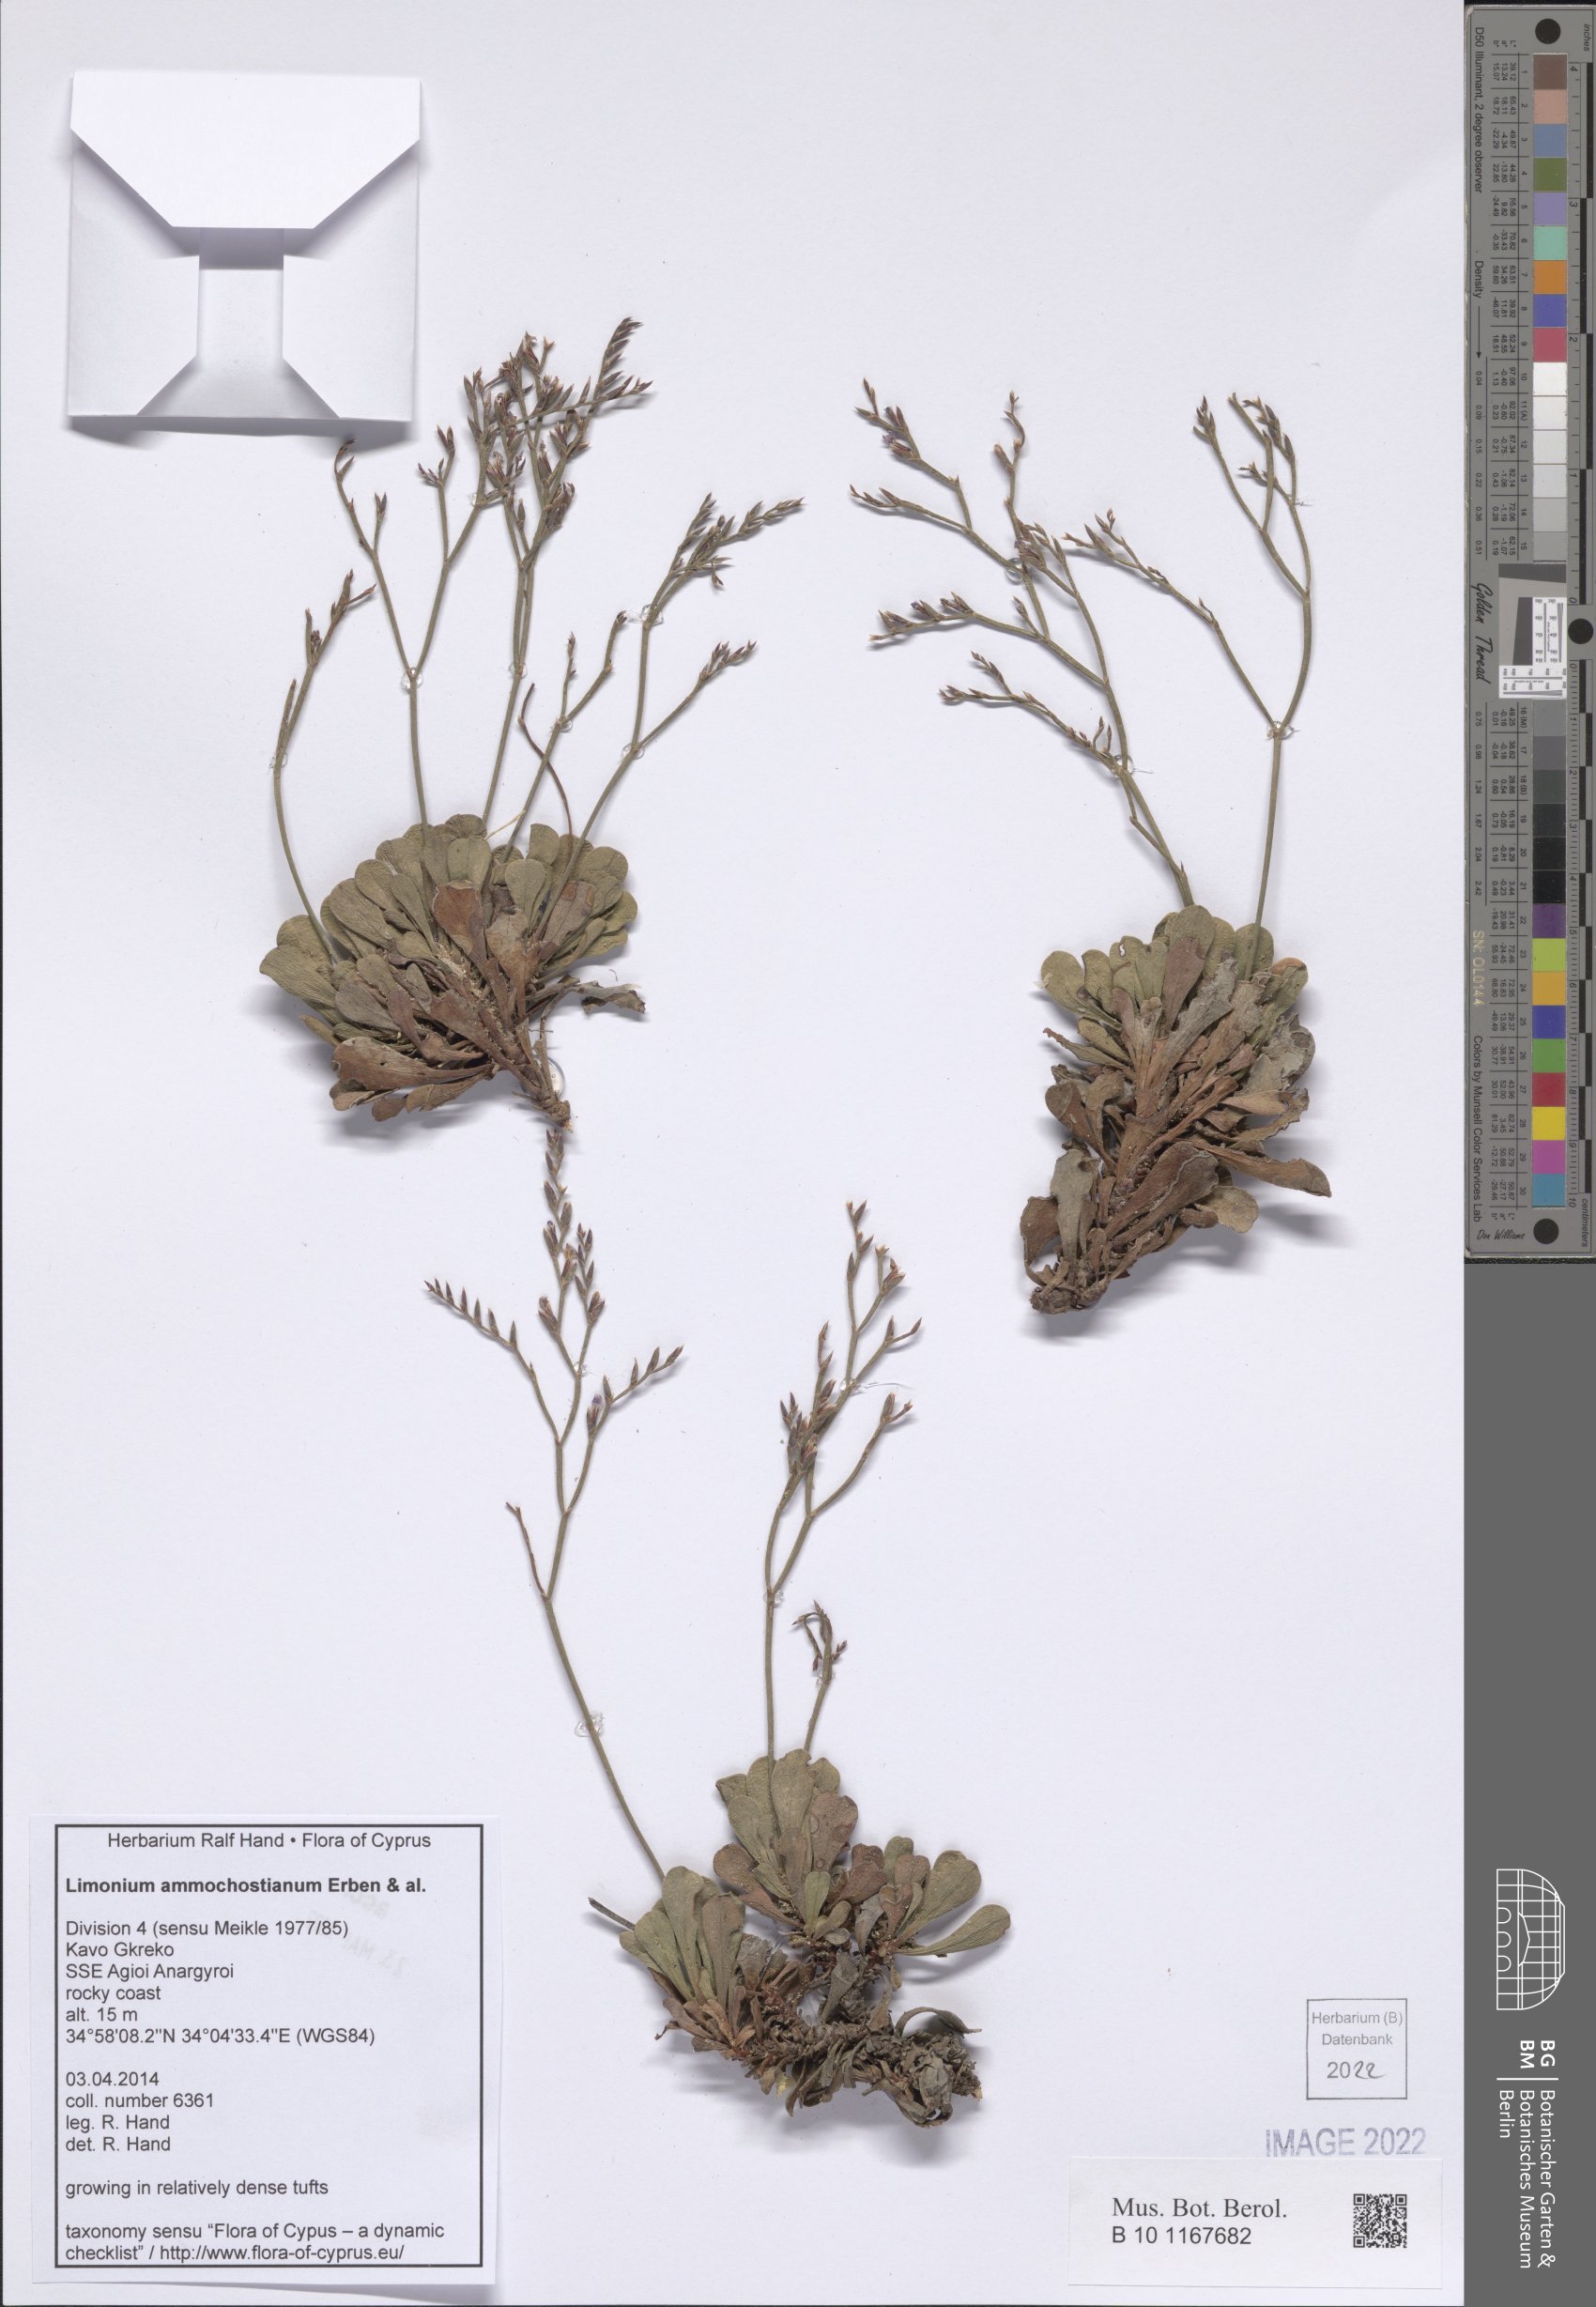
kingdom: Plantae
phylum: Tracheophyta
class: Magnoliopsida
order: Caryophyllales
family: Plumbaginaceae
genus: Limonium
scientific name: Limonium ammochostianum
